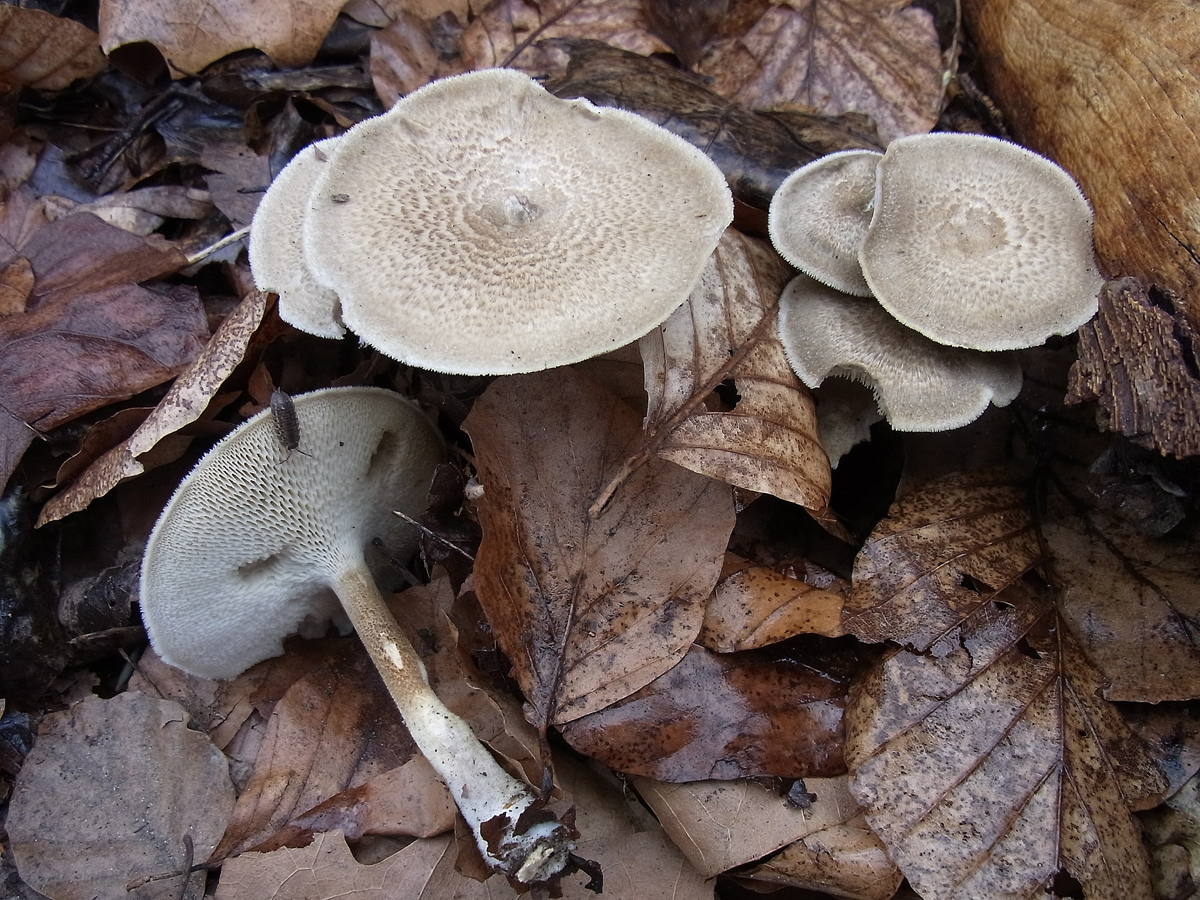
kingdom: Fungi
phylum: Basidiomycota
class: Agaricomycetes
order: Polyporales
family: Polyporaceae
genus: Lentinus
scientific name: Lentinus arcularius
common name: Spring polypore
